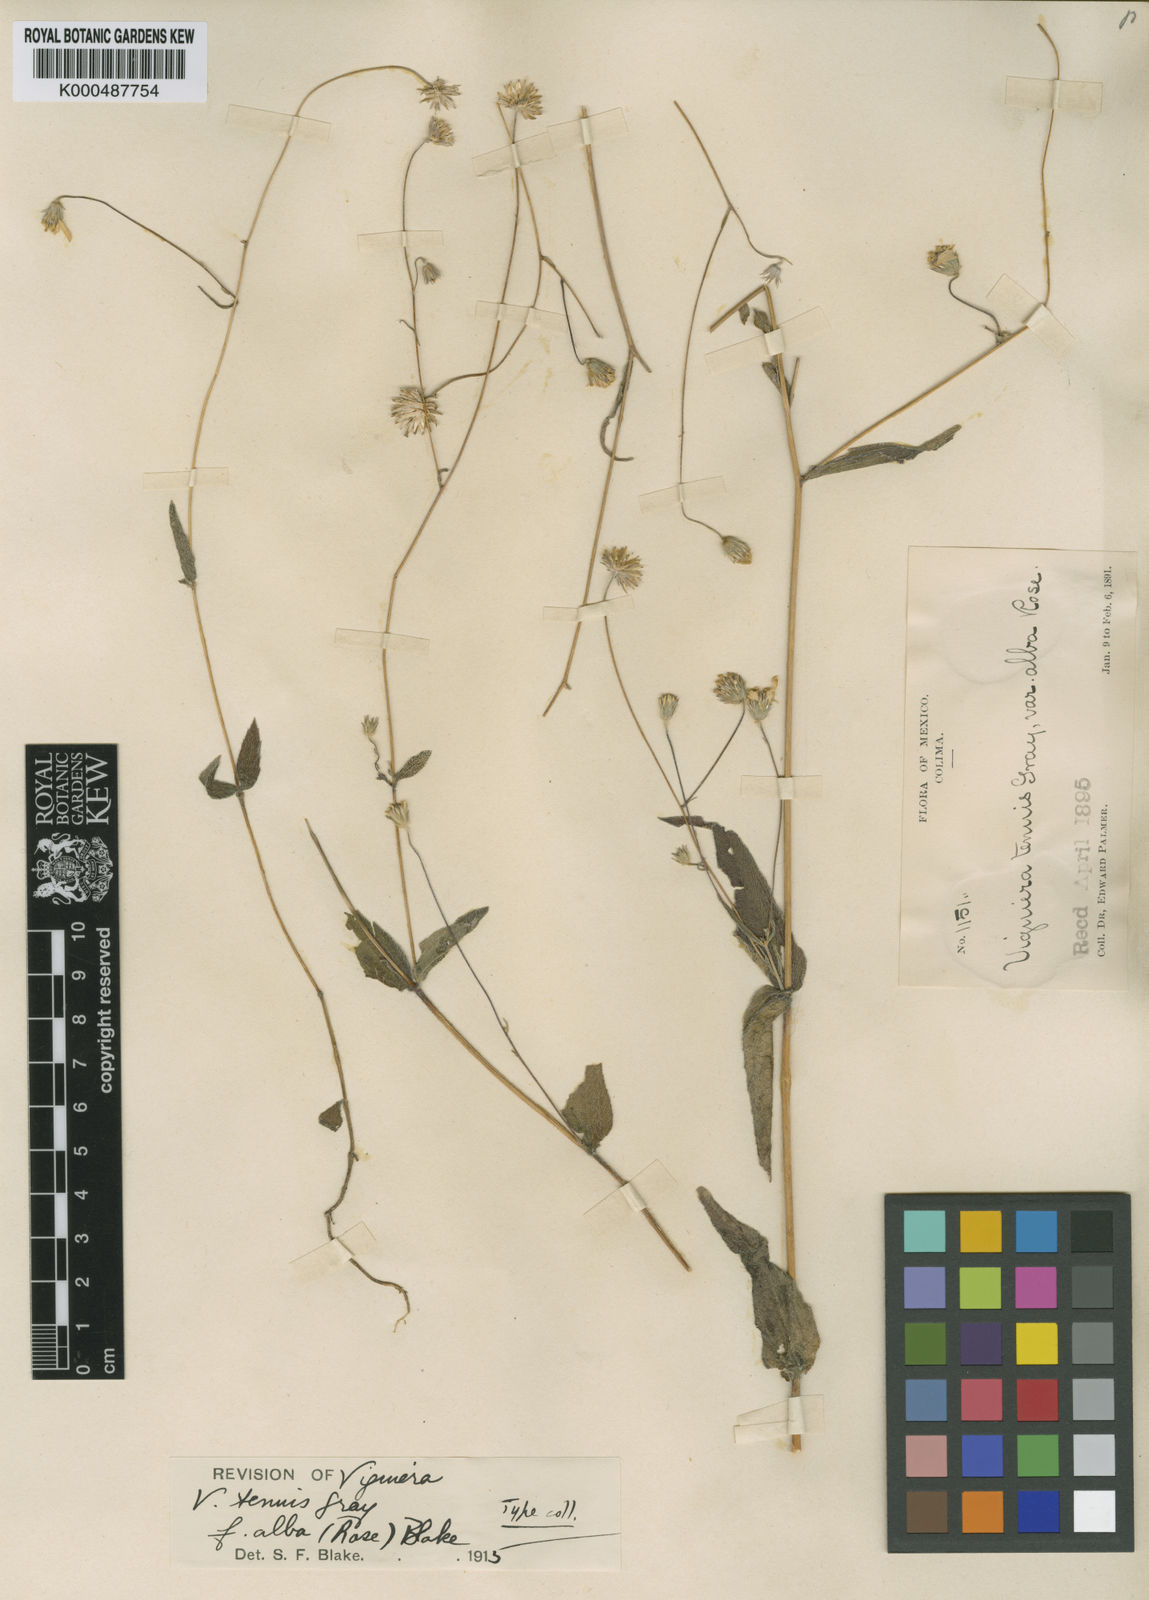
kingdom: Plantae
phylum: Tracheophyta
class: Magnoliopsida
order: Asterales
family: Asteraceae
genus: Hymenostephium
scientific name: Hymenostephium tenue
